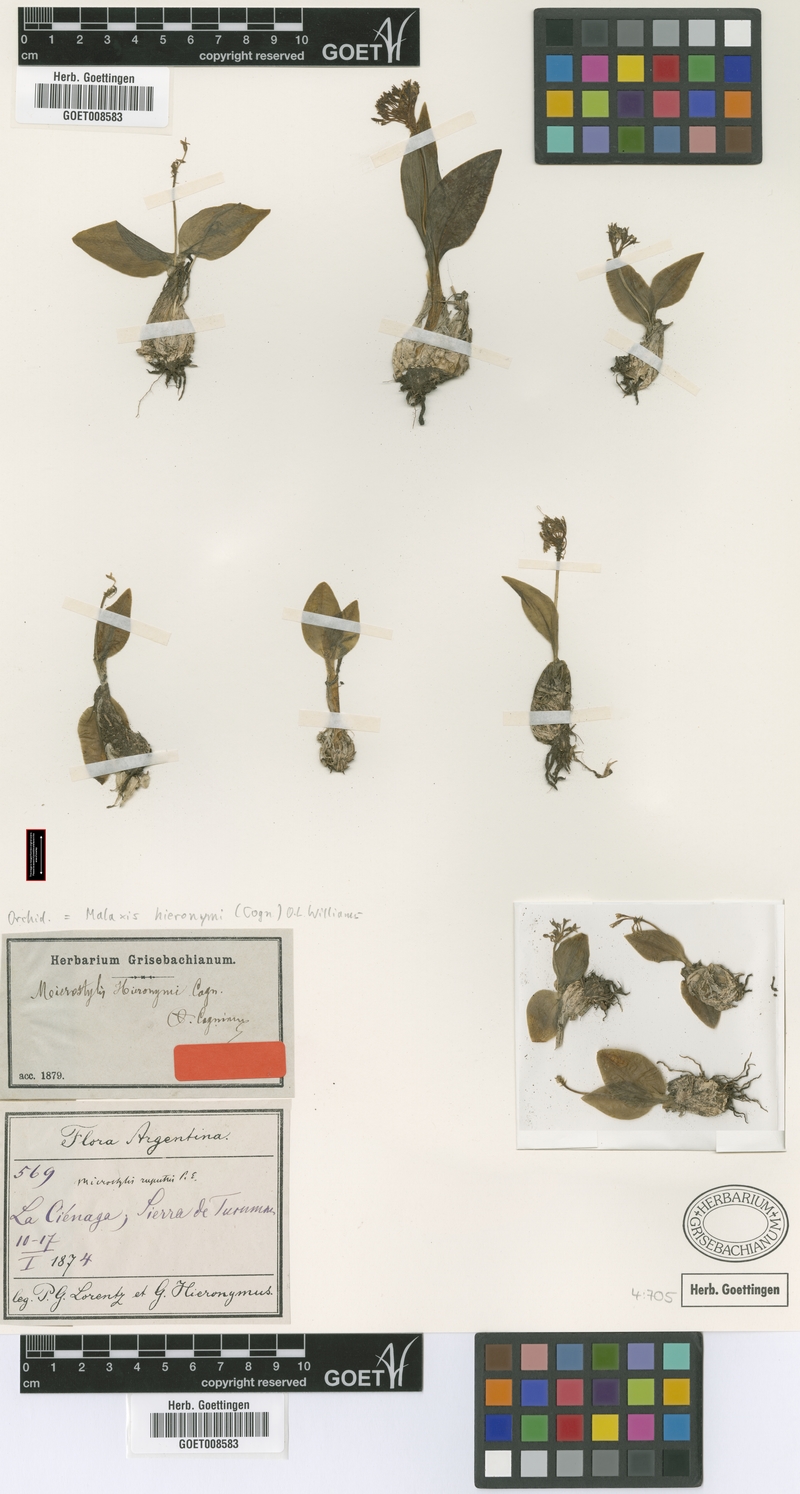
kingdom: Plantae
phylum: Tracheophyta
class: Liliopsida
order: Asparagales
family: Orchidaceae
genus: Malaxis
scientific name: Malaxis hieronymi
